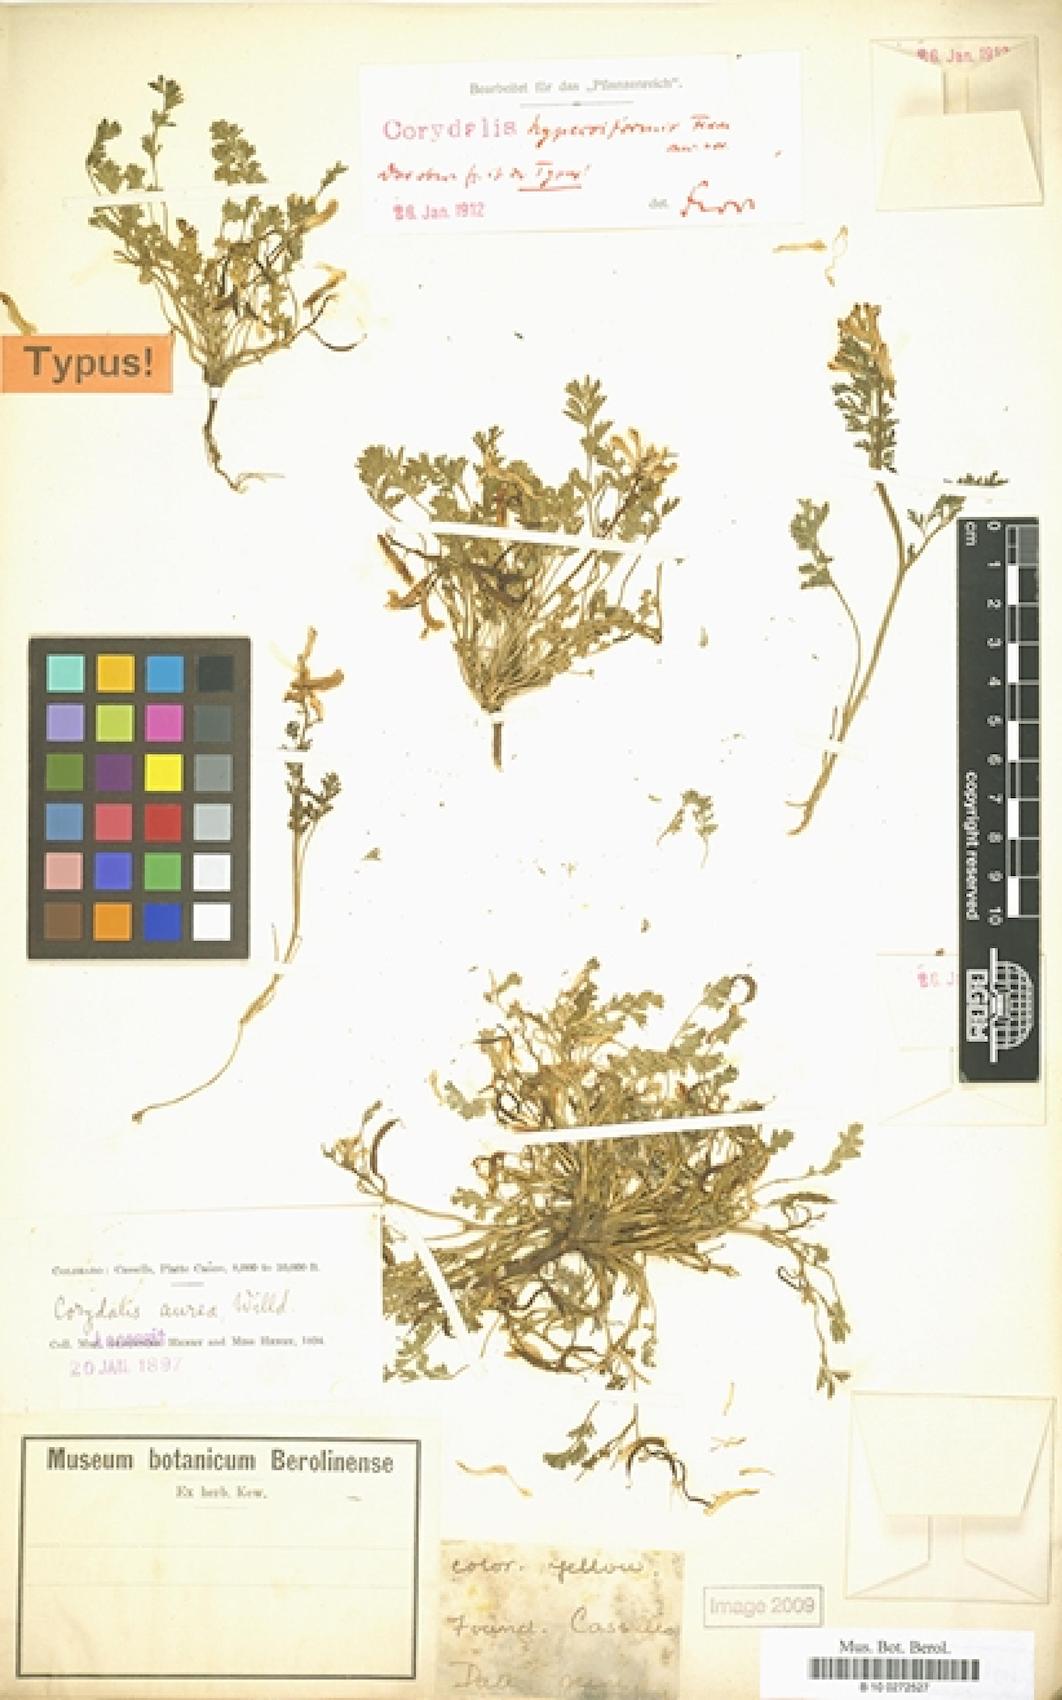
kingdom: Plantae
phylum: Tracheophyta
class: Magnoliopsida
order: Ranunculales
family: Papaveraceae
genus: Corydalis
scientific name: Corydalis aurea
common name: Golden corydalis
